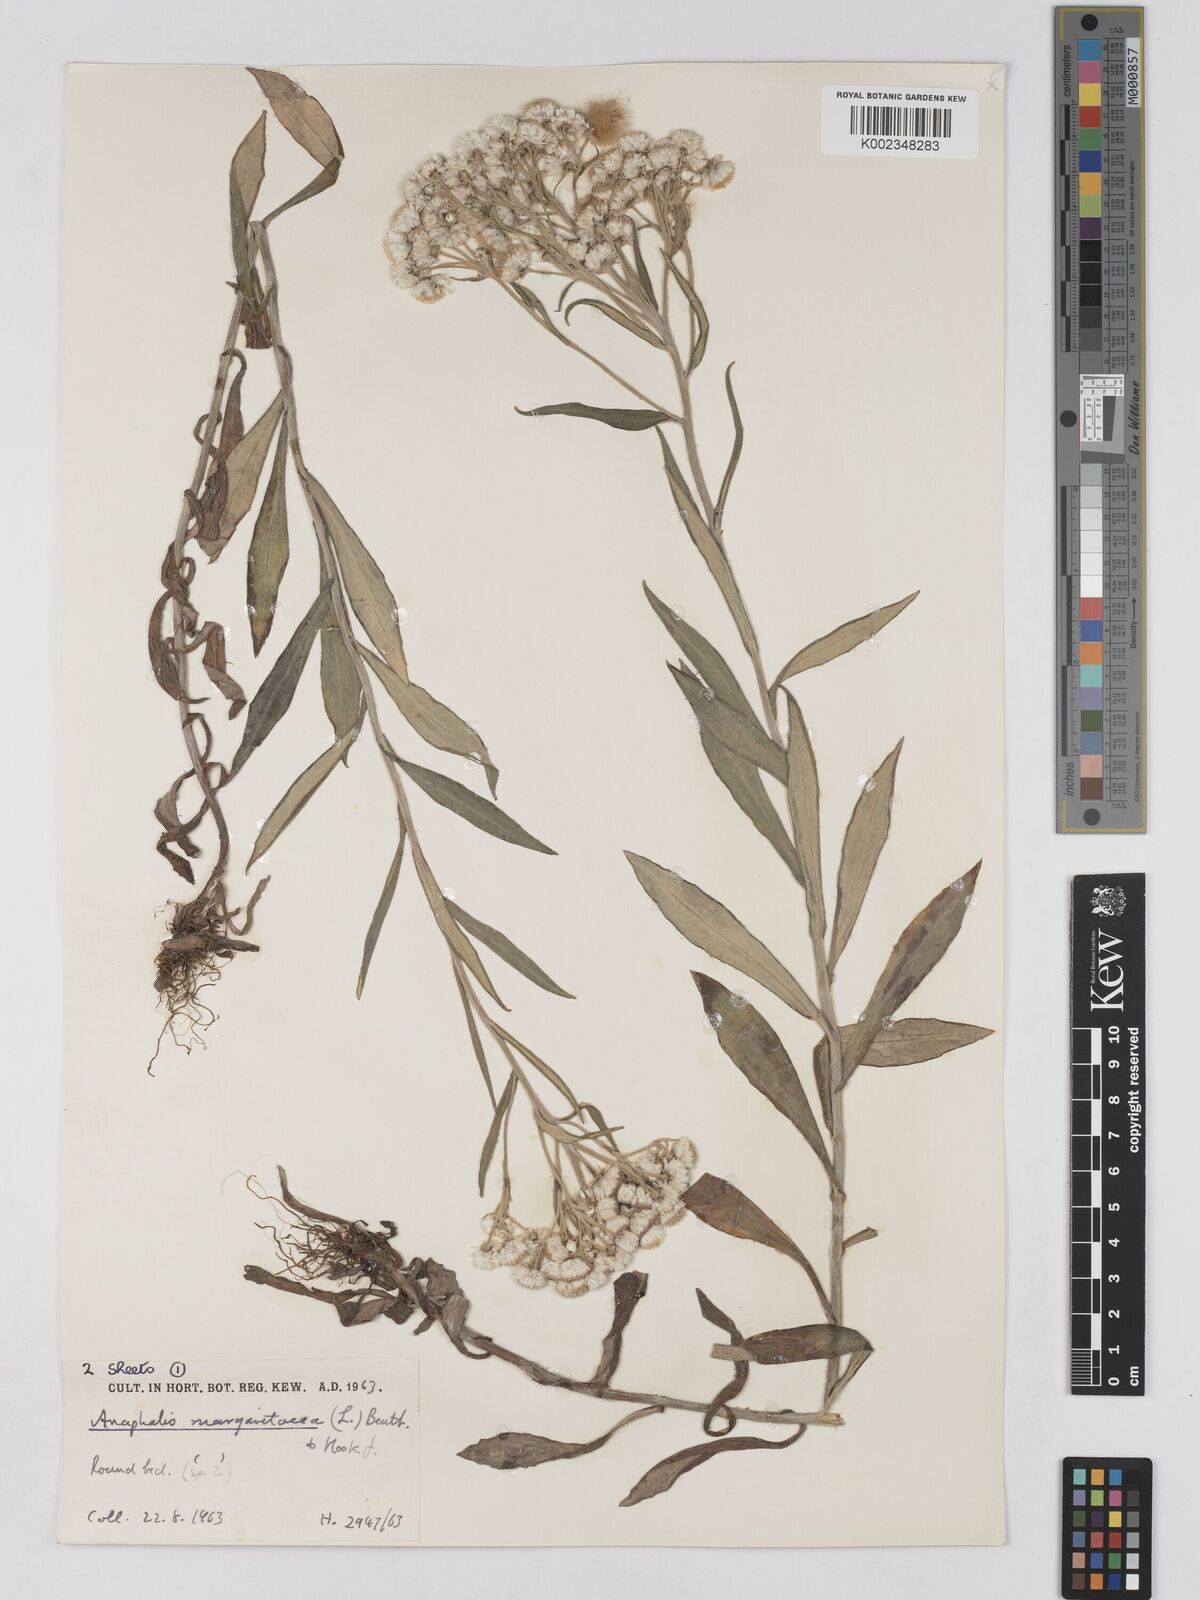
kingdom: Plantae
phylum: Tracheophyta
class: Magnoliopsida
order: Asterales
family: Asteraceae
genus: Anaphalis
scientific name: Anaphalis margaritacea
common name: Pearly everlasting
